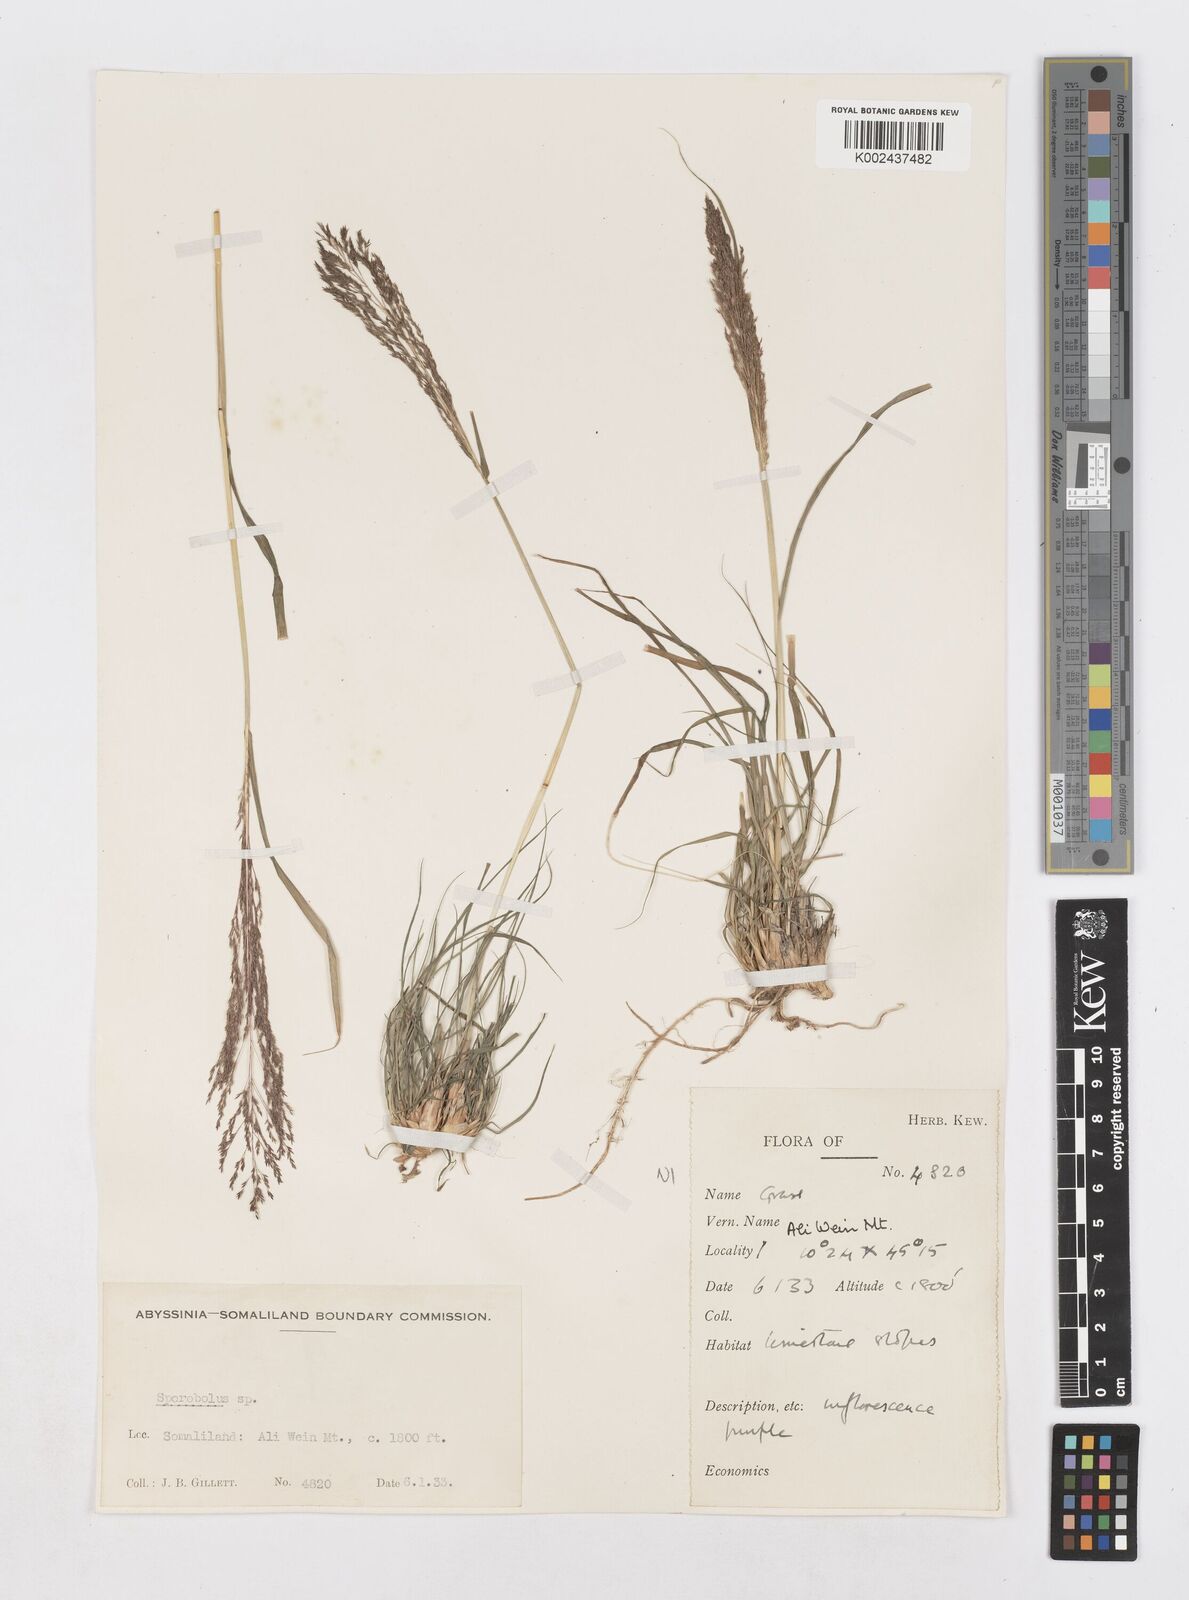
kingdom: Plantae
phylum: Tracheophyta
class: Liliopsida
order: Poales
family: Poaceae
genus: Sporobolus
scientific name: Sporobolus nervosus
